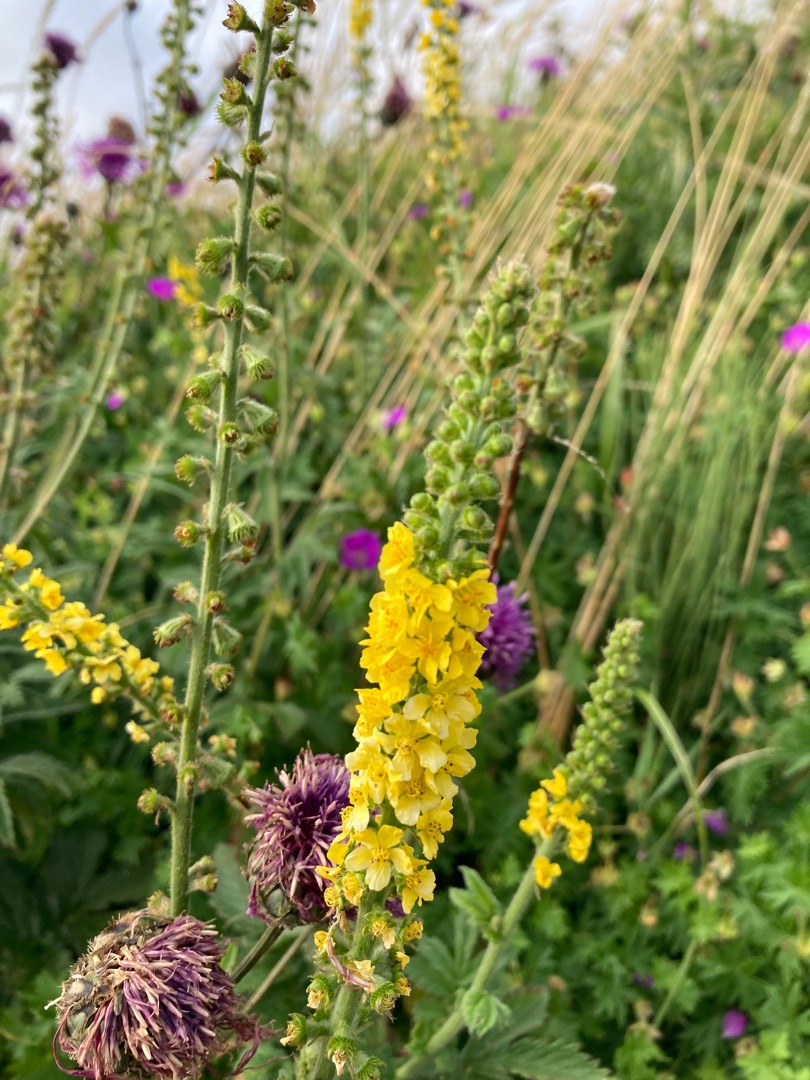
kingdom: Plantae
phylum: Tracheophyta
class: Magnoliopsida
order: Rosales
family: Rosaceae
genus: Agrimonia
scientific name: Agrimonia eupatoria
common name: Almindelig agermåne
